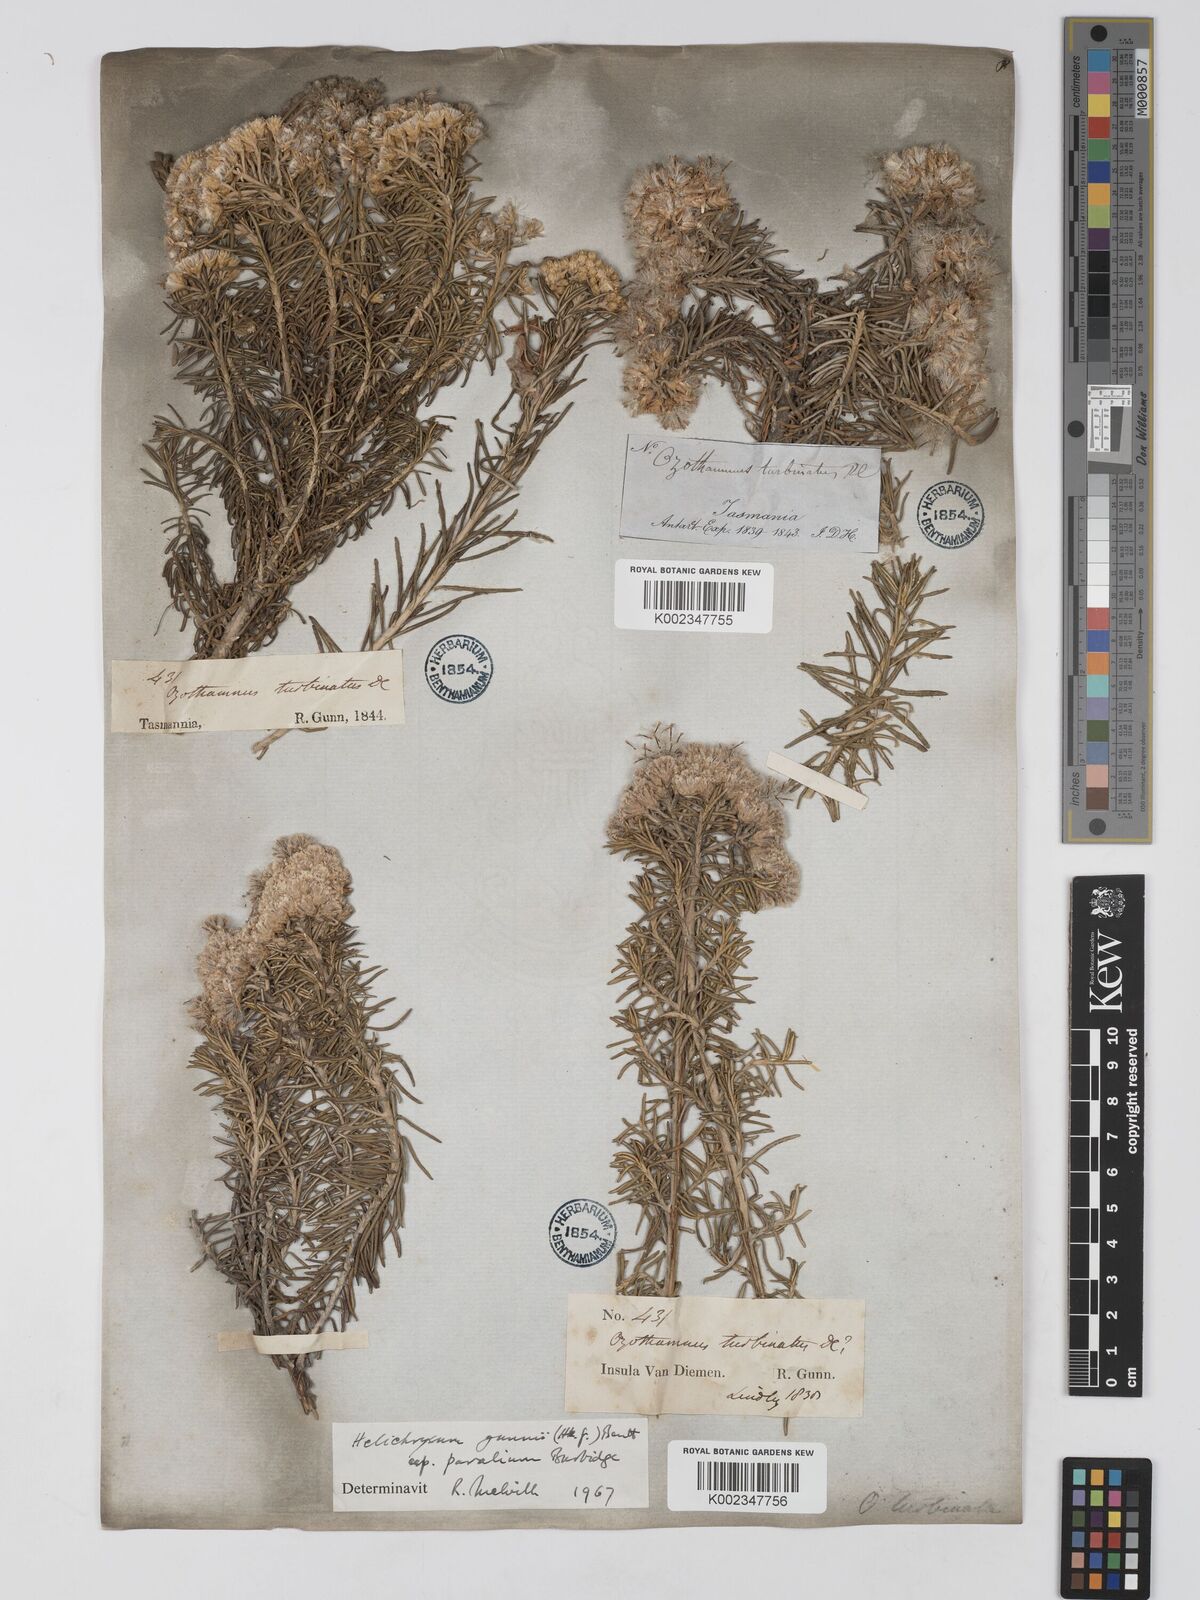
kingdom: Plantae
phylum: Tracheophyta
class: Magnoliopsida
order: Asterales
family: Asteraceae
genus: Ozothamnus
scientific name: Ozothamnus gunnii
